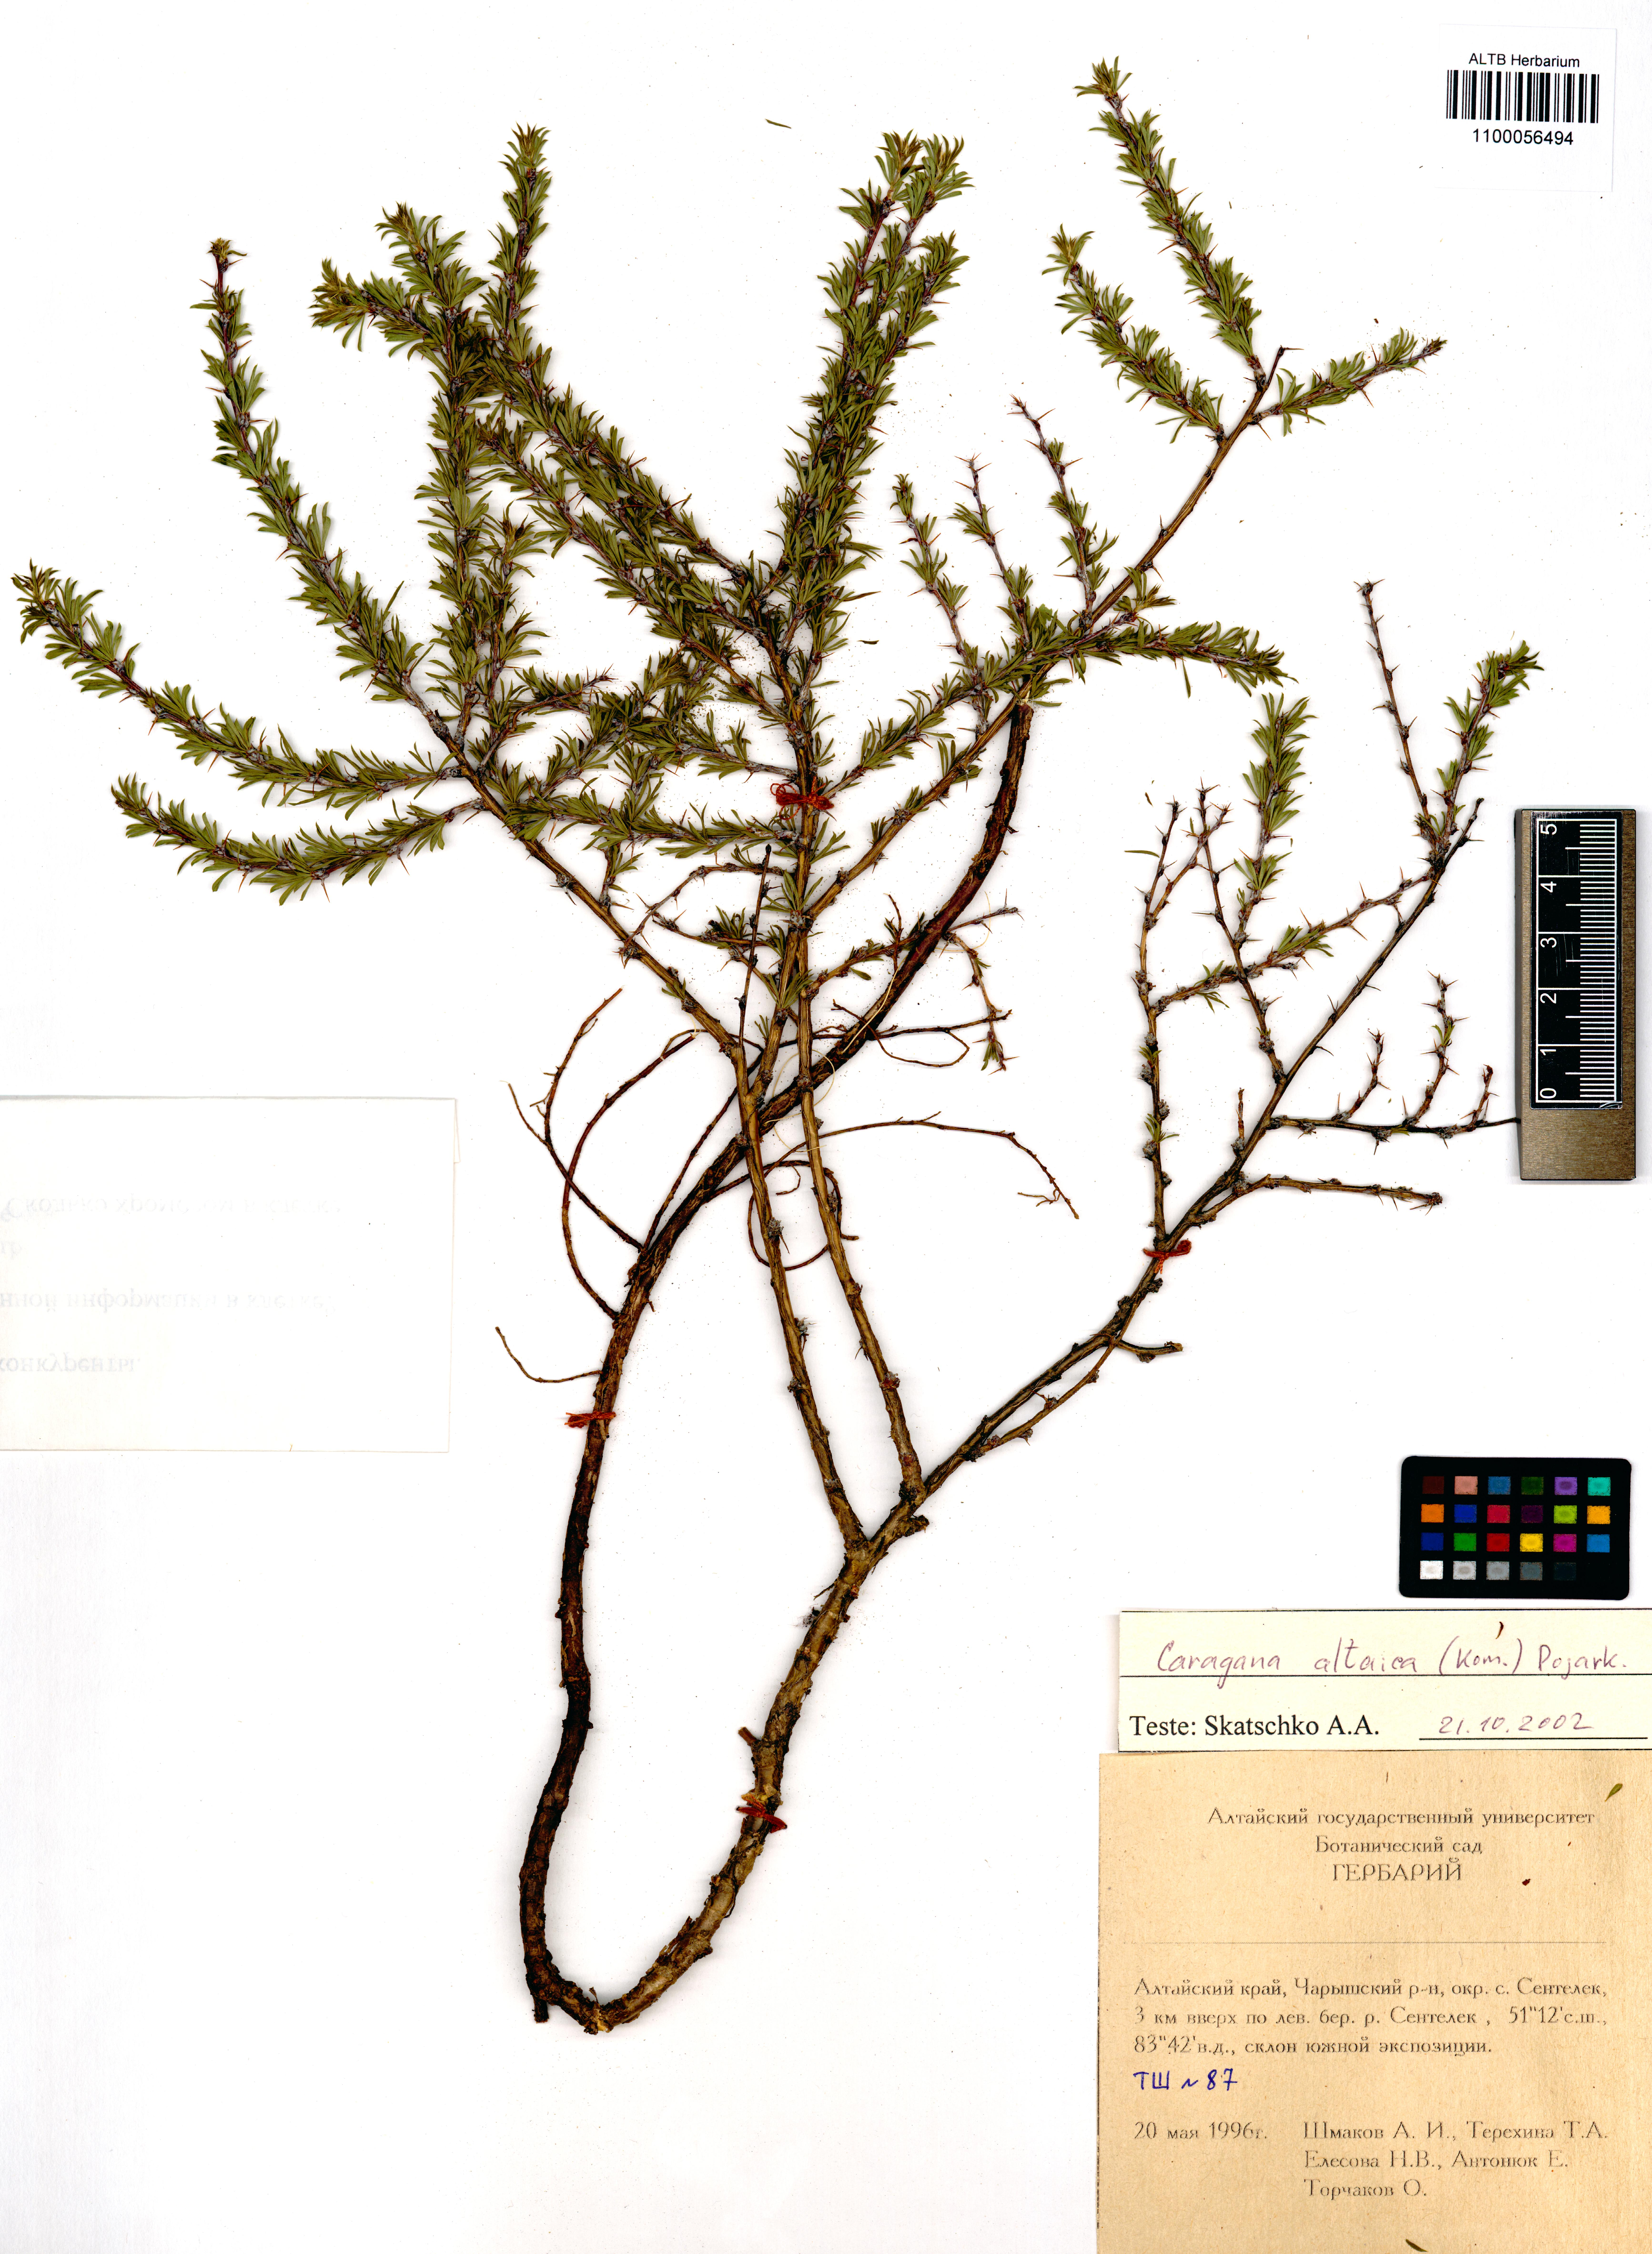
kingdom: Plantae
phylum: Tracheophyta
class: Magnoliopsida
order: Fabales
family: Fabaceae
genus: Caragana
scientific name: Caragana pygmaea
